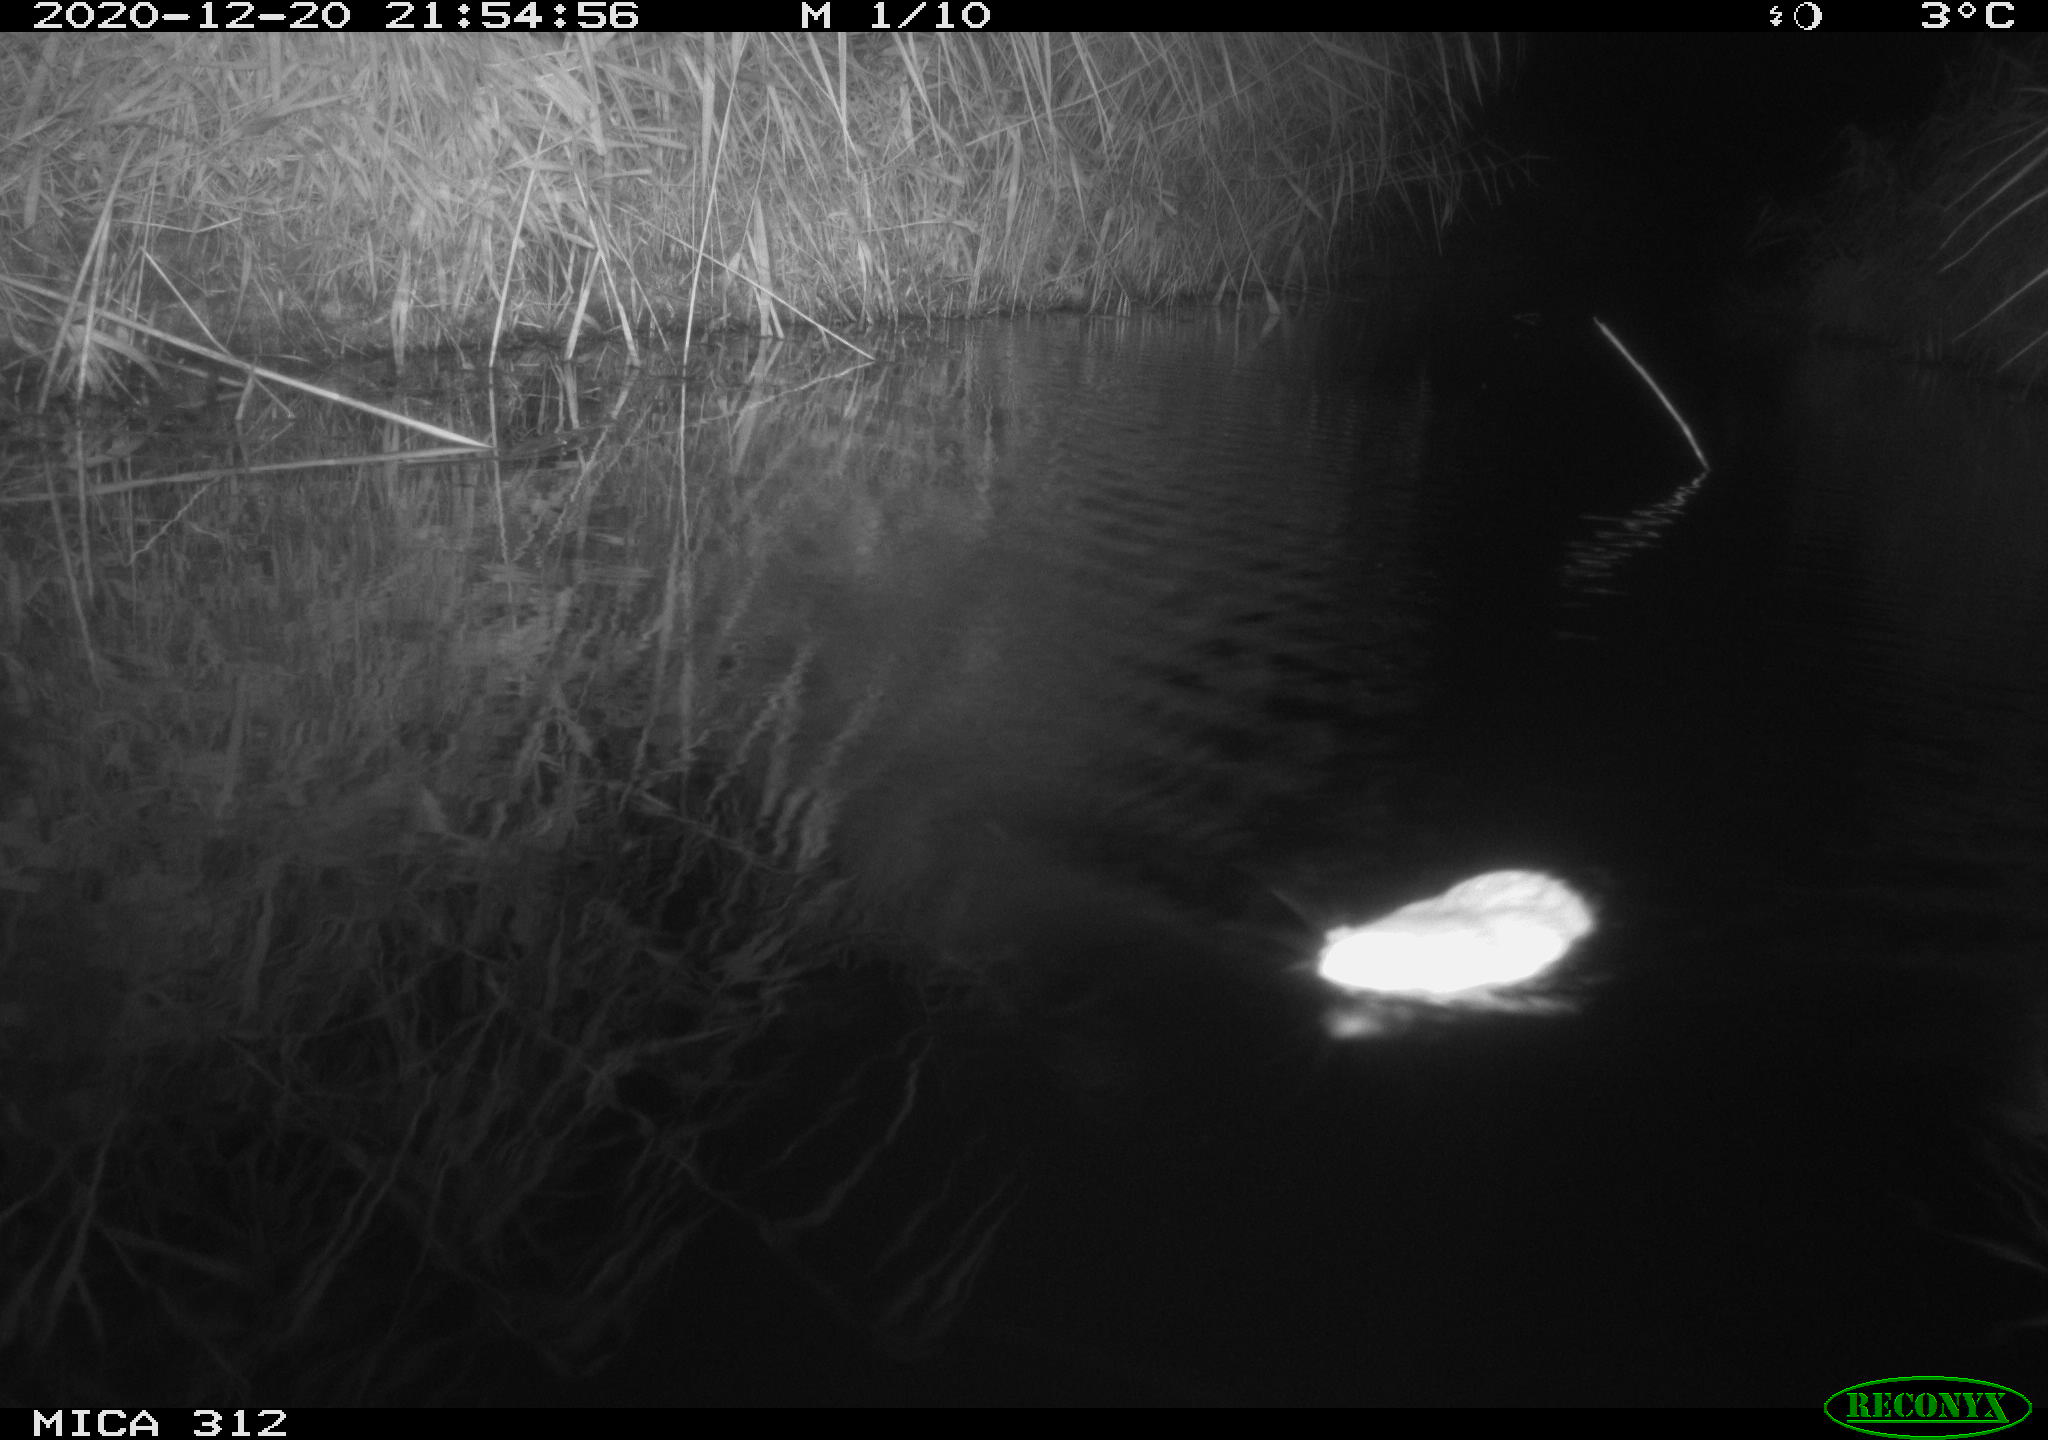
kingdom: Animalia
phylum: Chordata
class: Mammalia
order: Rodentia
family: Muridae
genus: Rattus
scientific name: Rattus norvegicus
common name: Brown rat
